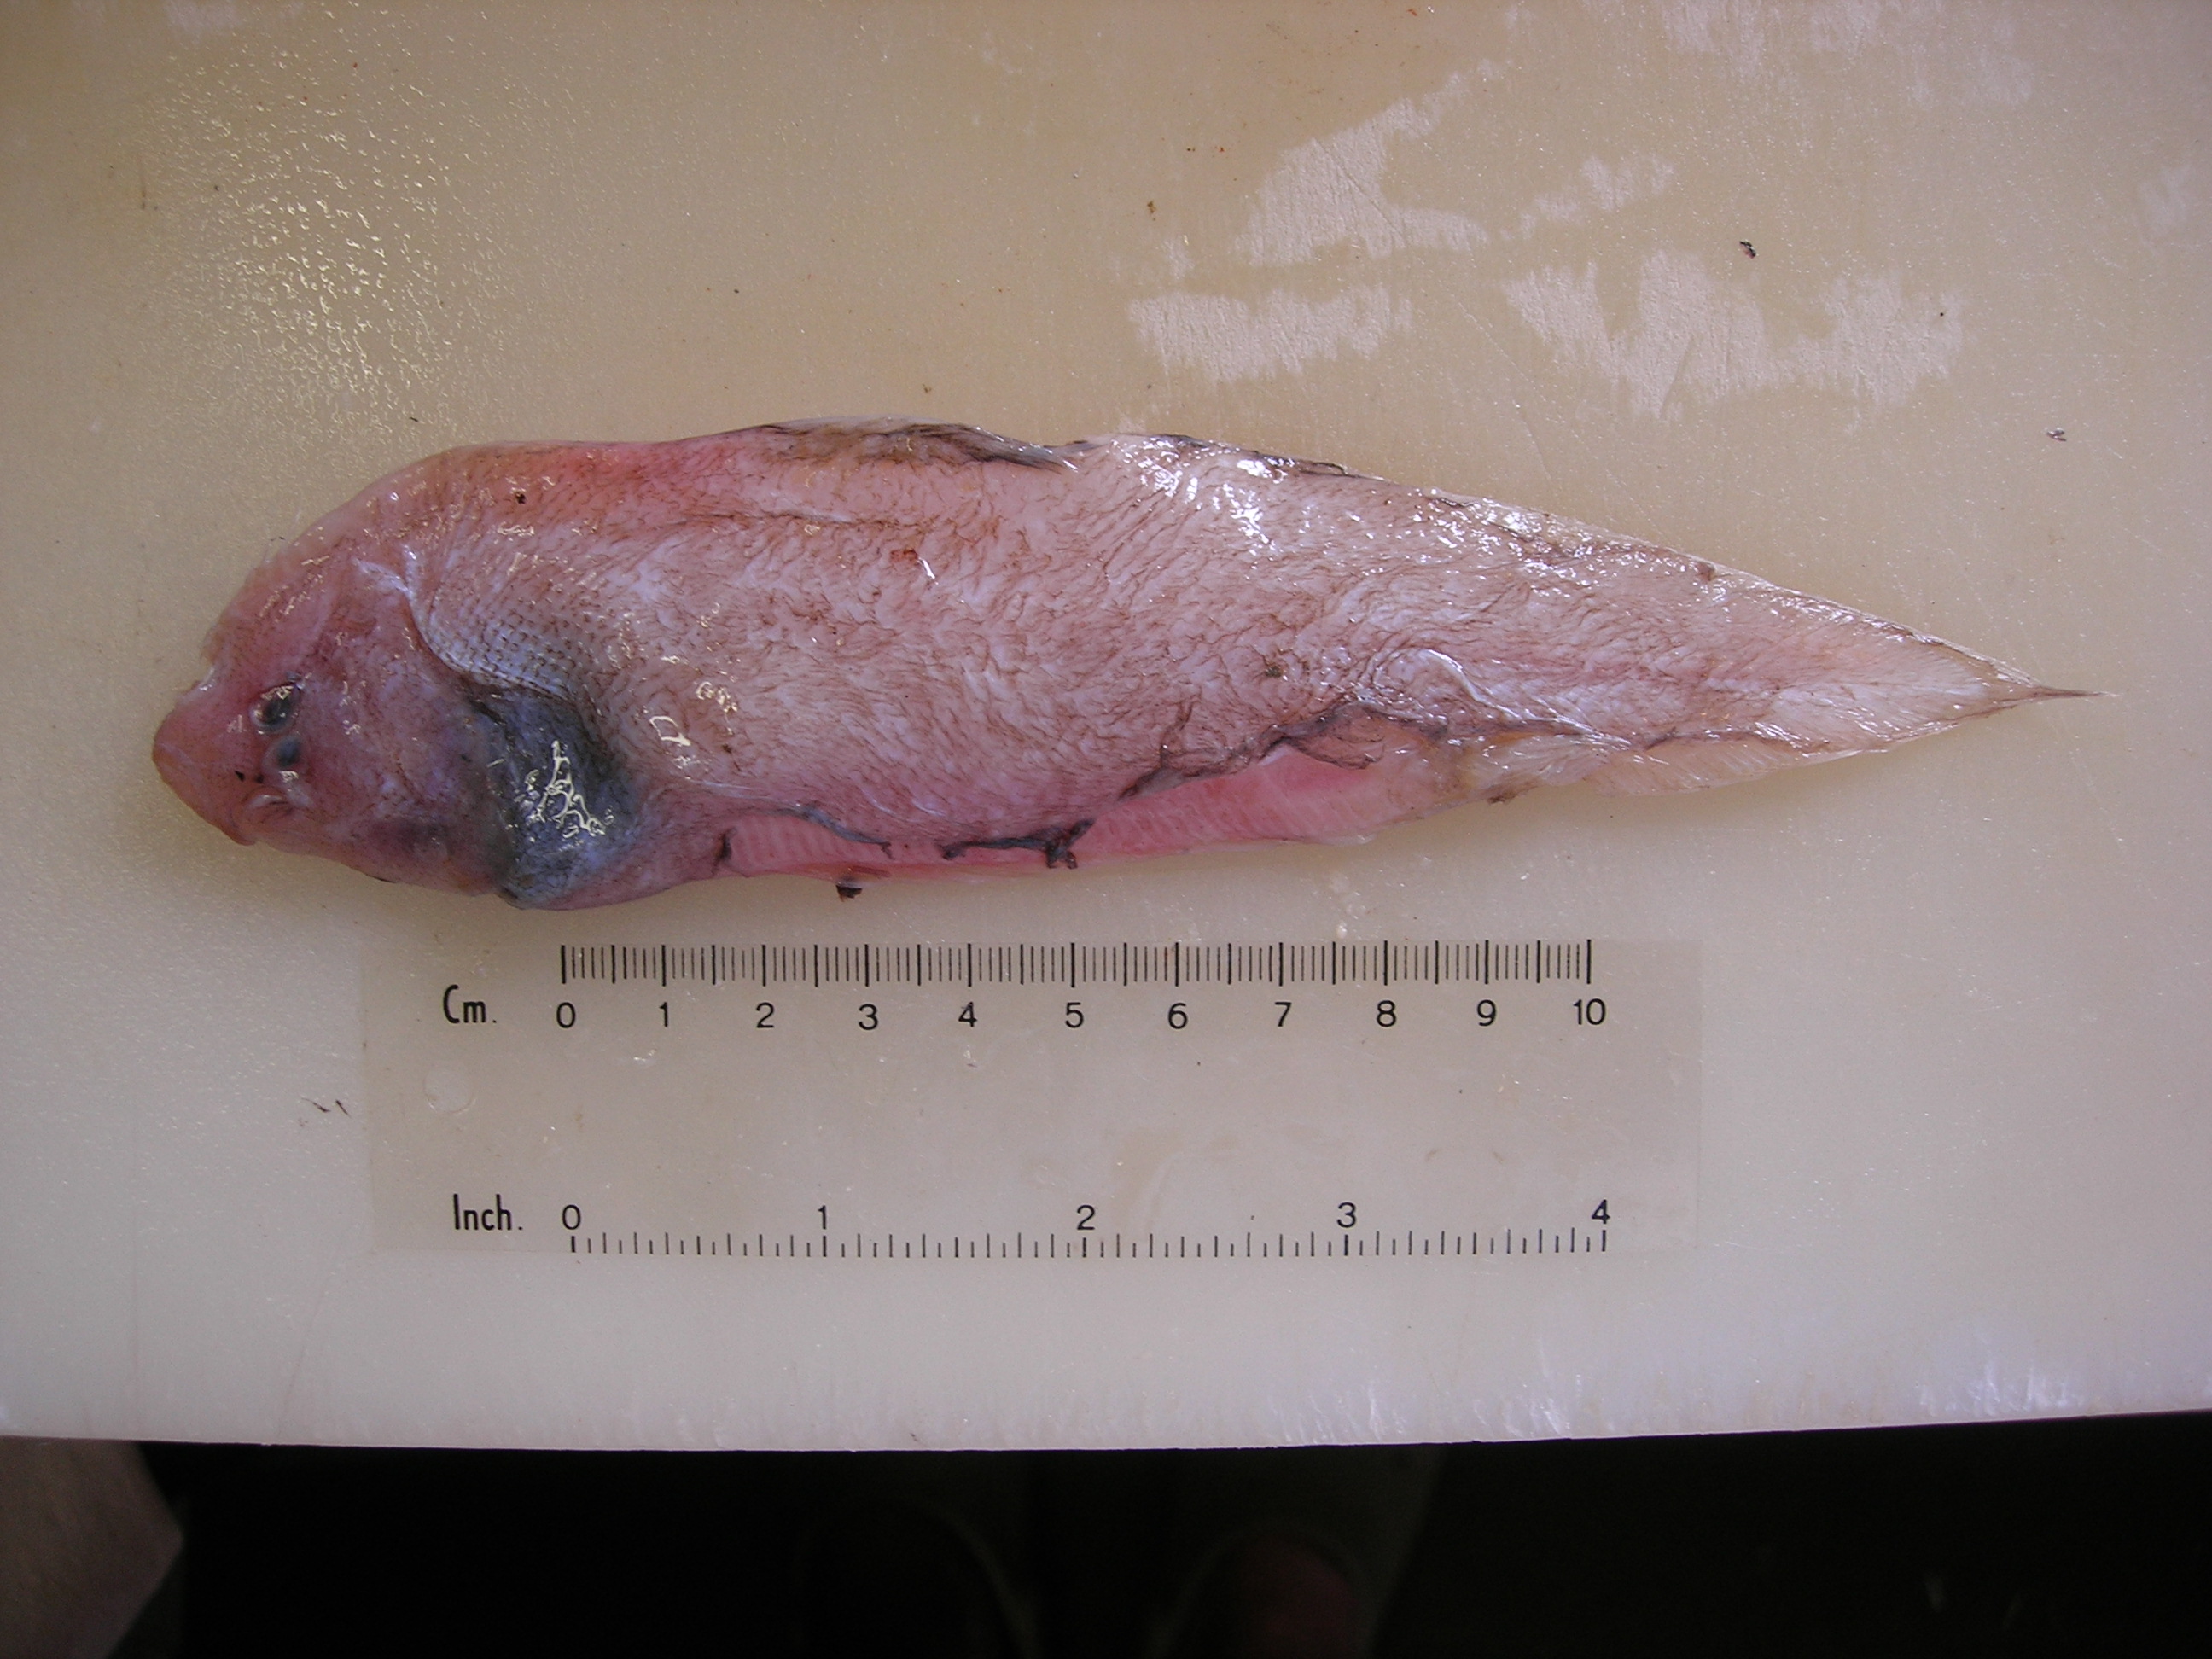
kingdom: Animalia
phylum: Chordata
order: Pleuronectiformes
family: Cynoglossidae
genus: Cynoglossus
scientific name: Cynoglossus
